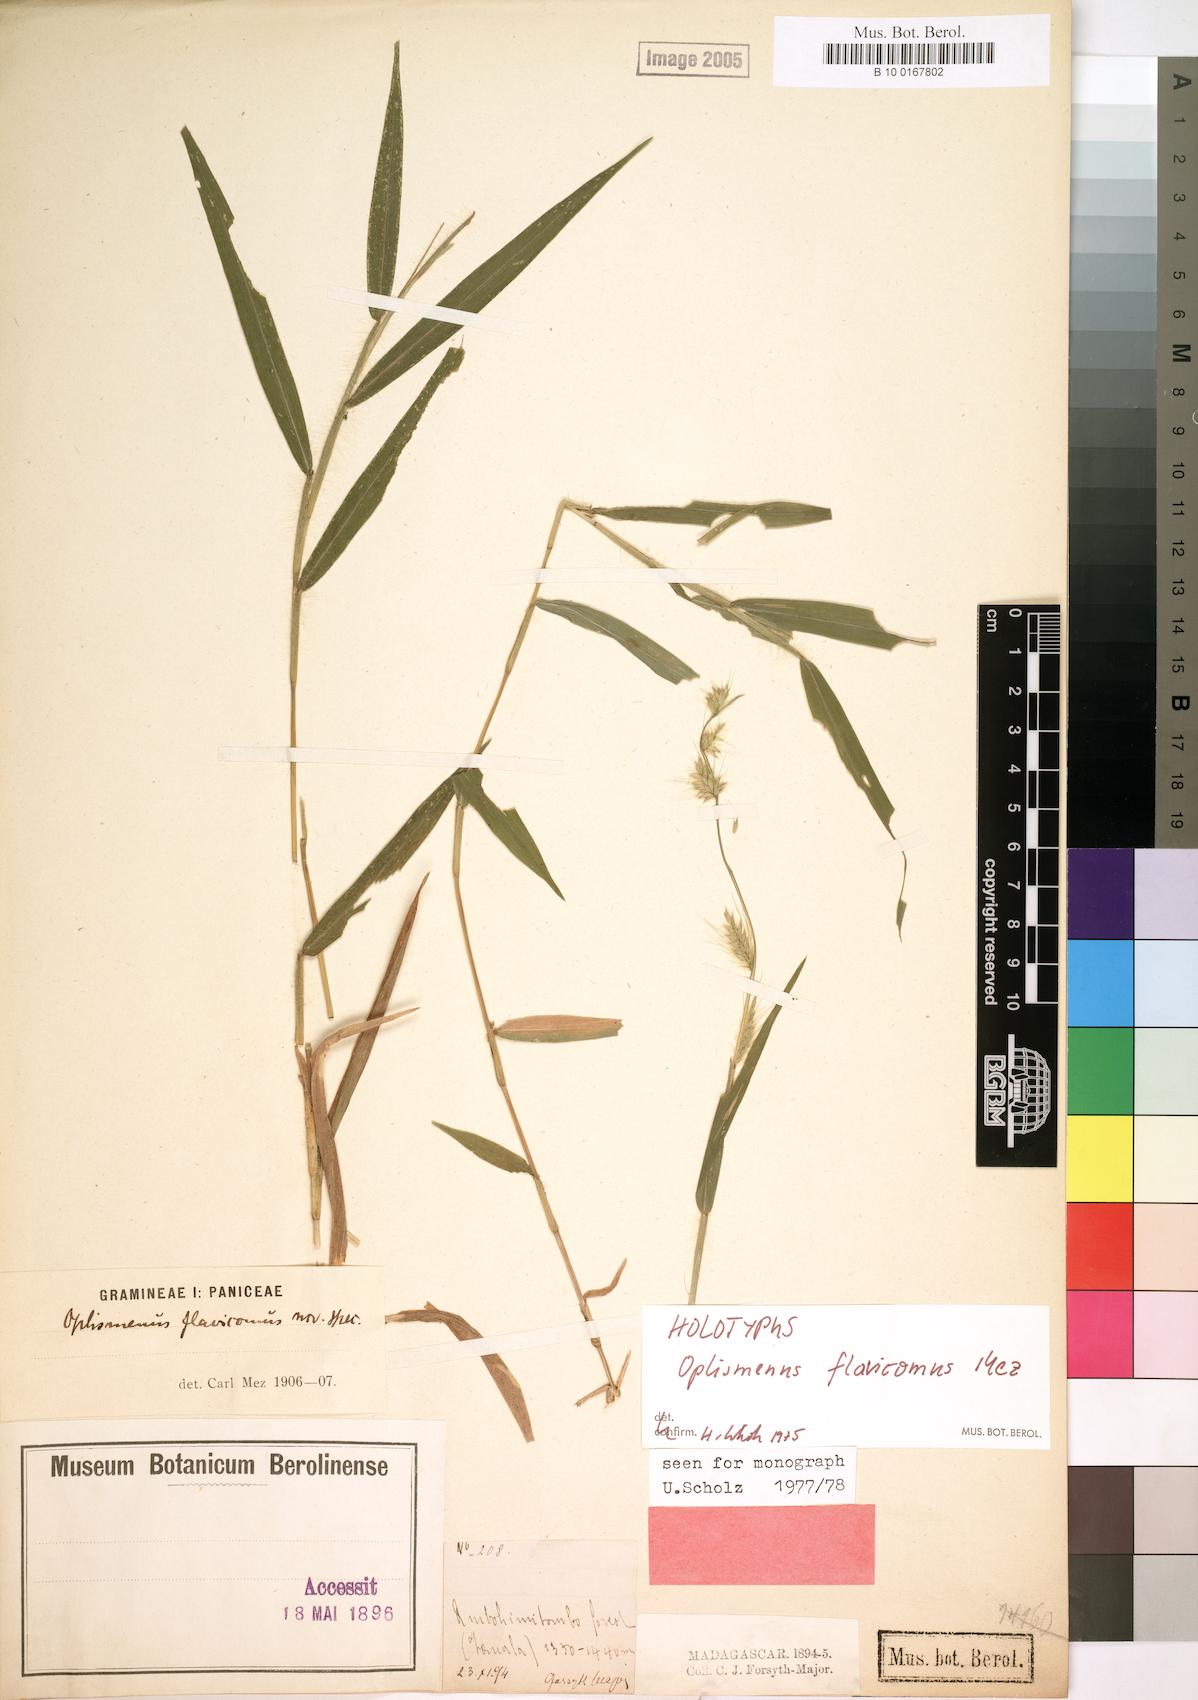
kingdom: Plantae
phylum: Tracheophyta
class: Liliopsida
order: Poales
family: Poaceae
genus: Oplismenus
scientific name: Oplismenus flavicomus
